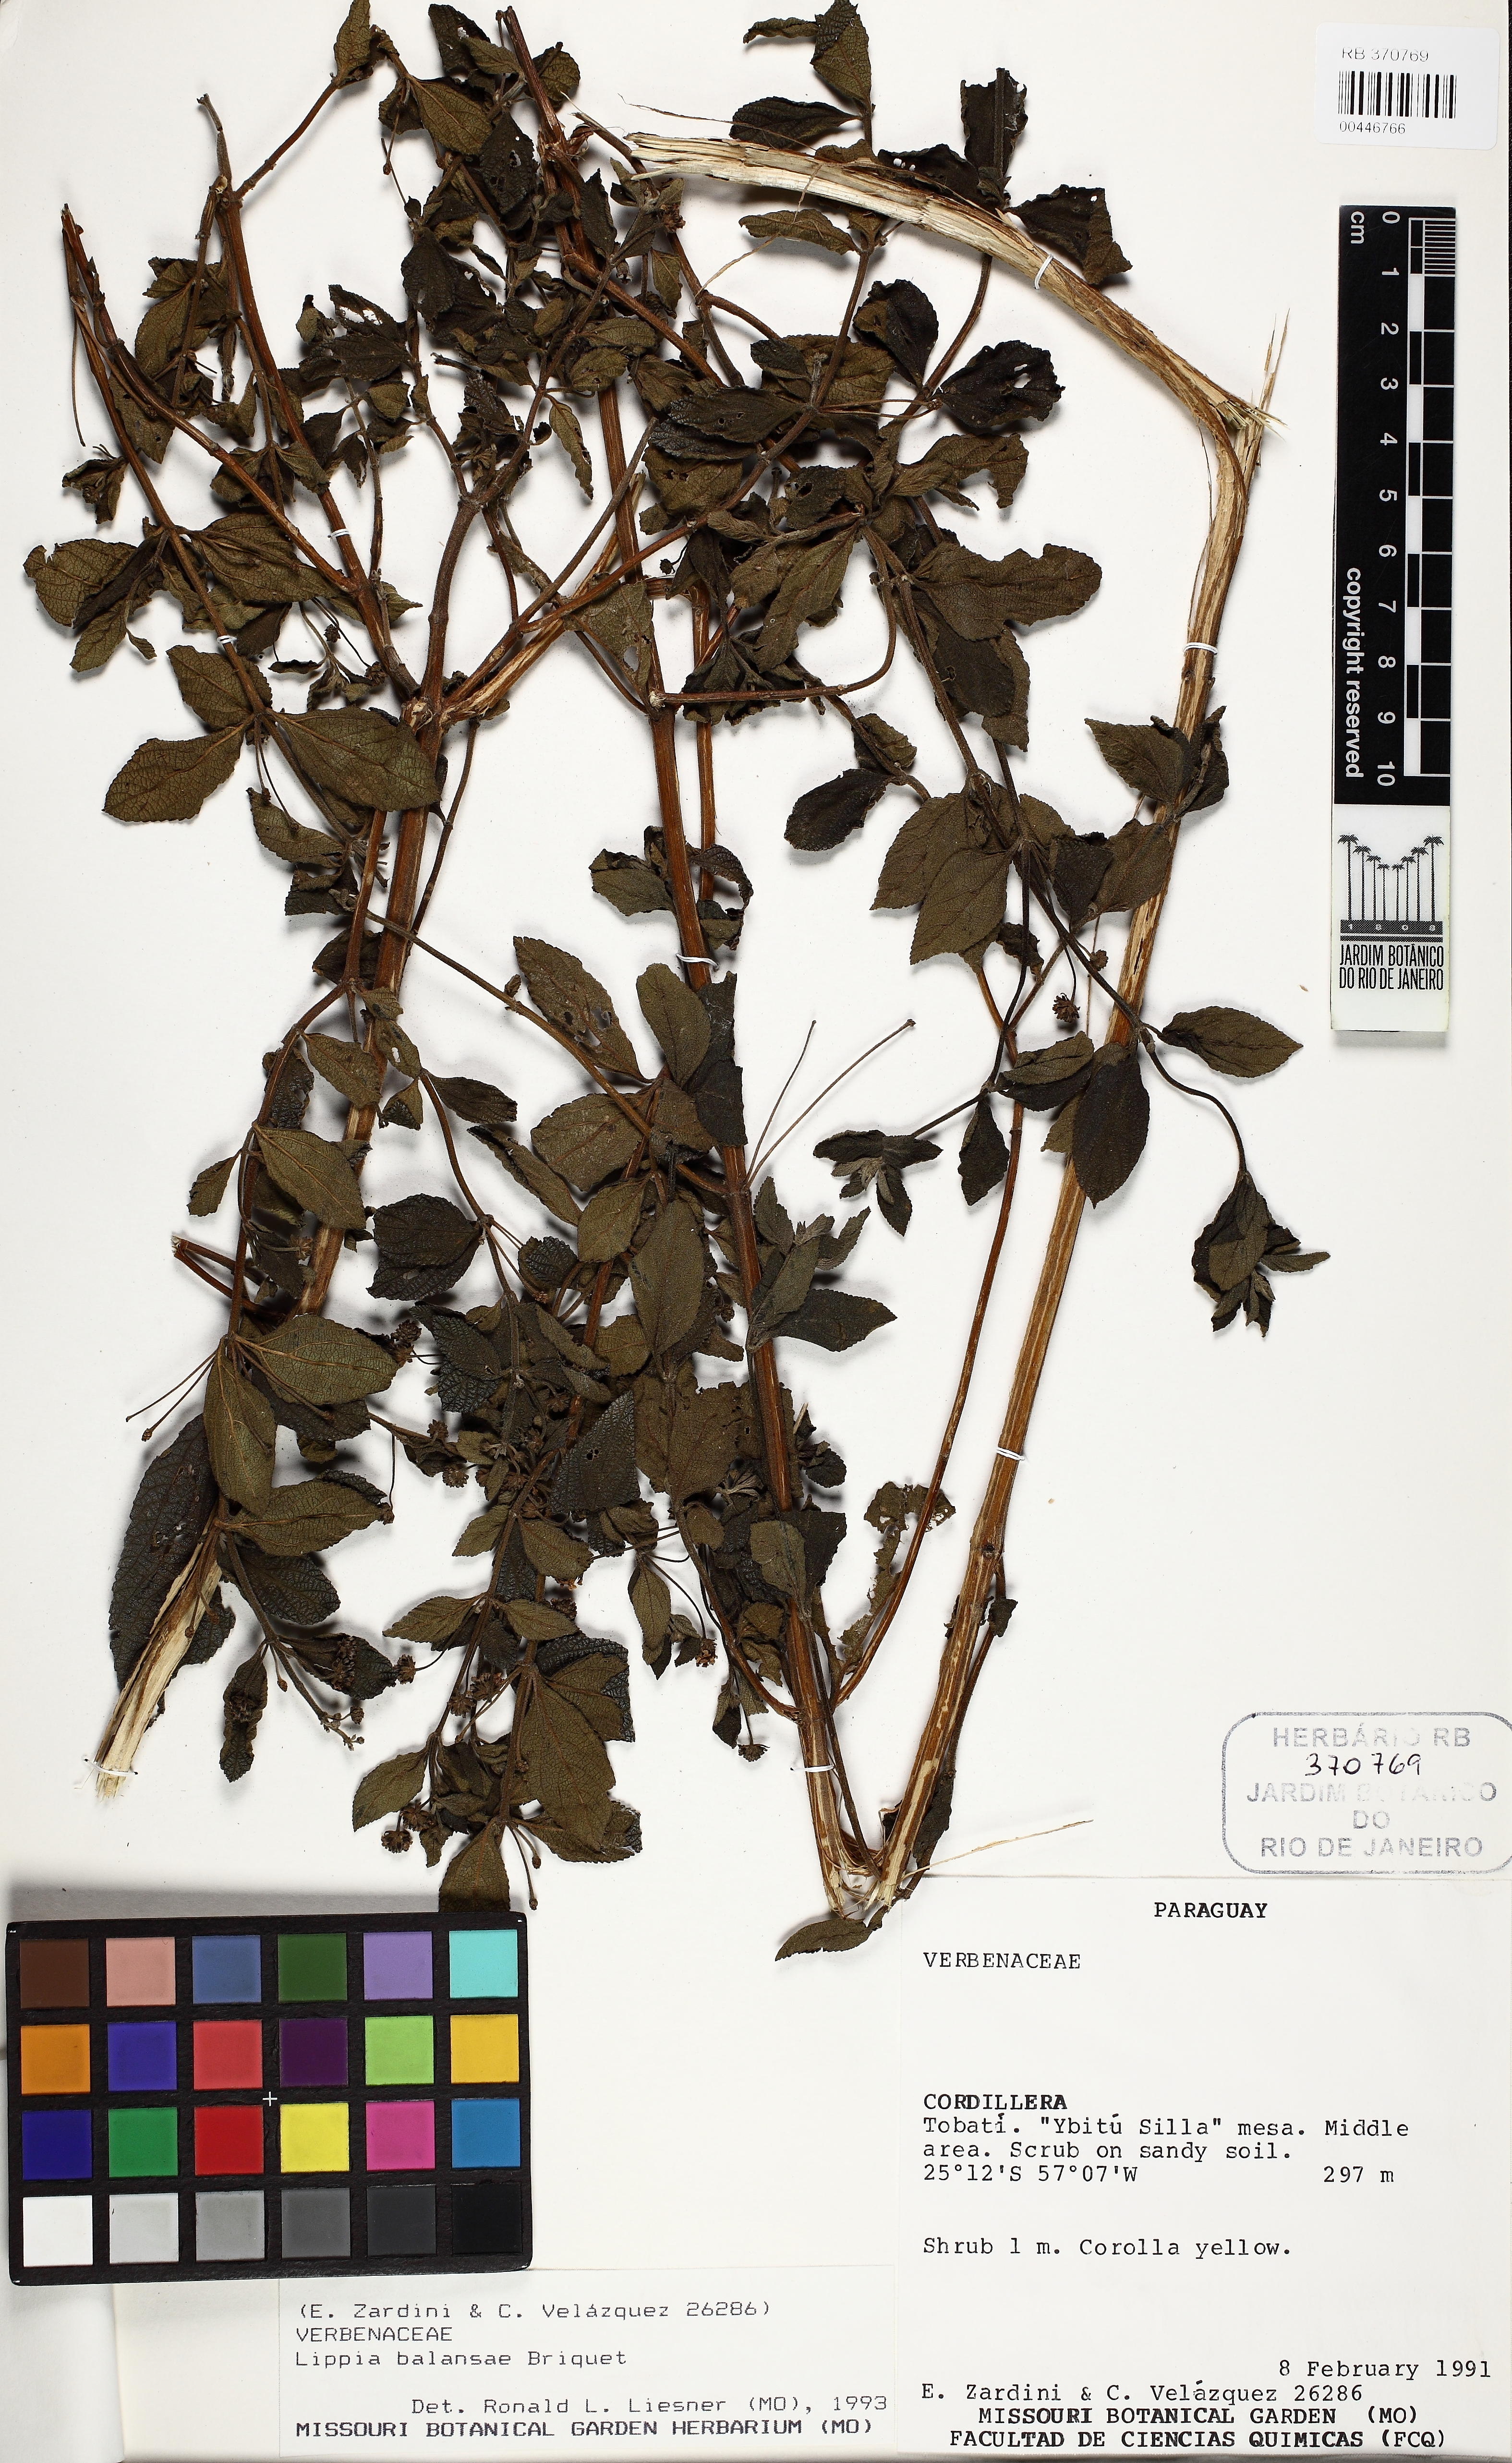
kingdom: Plantae
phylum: Tracheophyta
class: Magnoliopsida
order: Lamiales
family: Verbenaceae
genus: Lippia
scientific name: Lippia balansae
